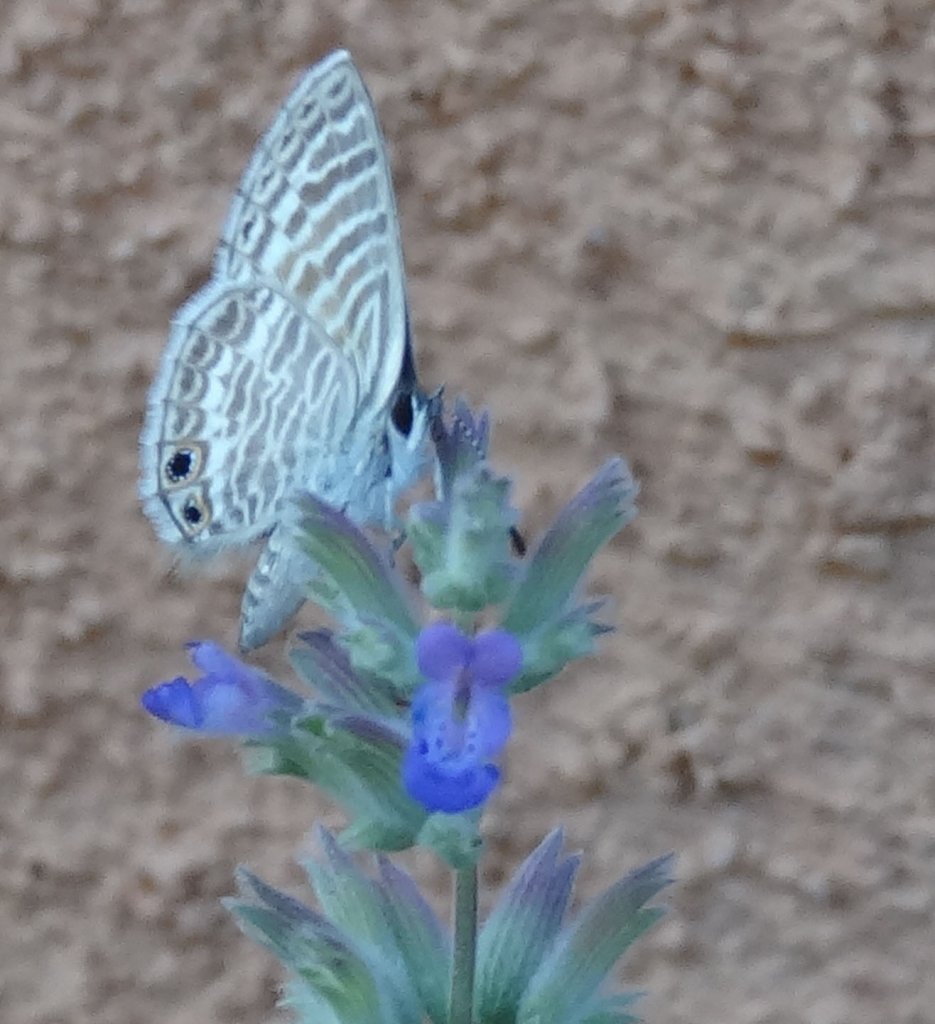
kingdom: Animalia
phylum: Arthropoda
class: Insecta
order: Lepidoptera
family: Lycaenidae
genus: Leptotes
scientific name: Leptotes marina
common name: Marine Blue
